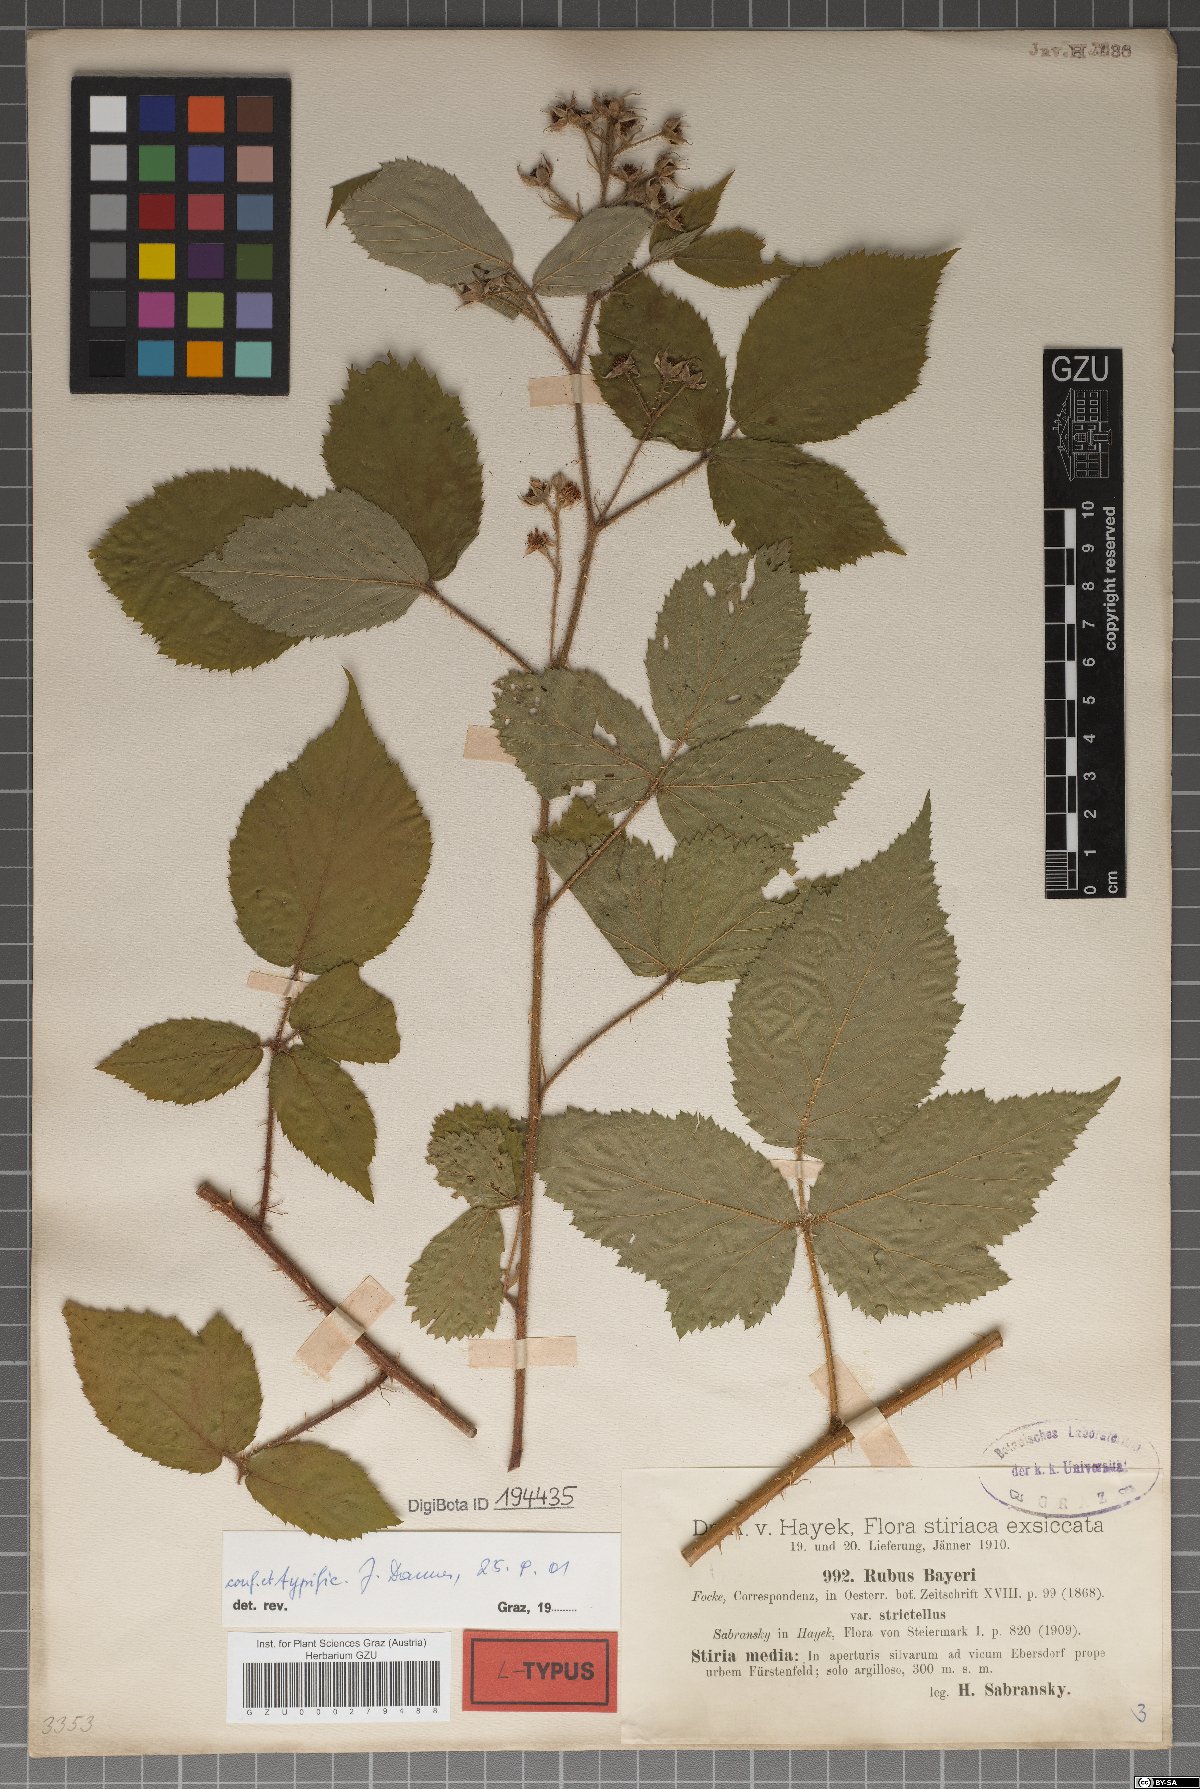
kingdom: Plantae
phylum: Tracheophyta
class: Magnoliopsida
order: Rosales
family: Rosaceae
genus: Rubus
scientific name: Rubus rivularis
